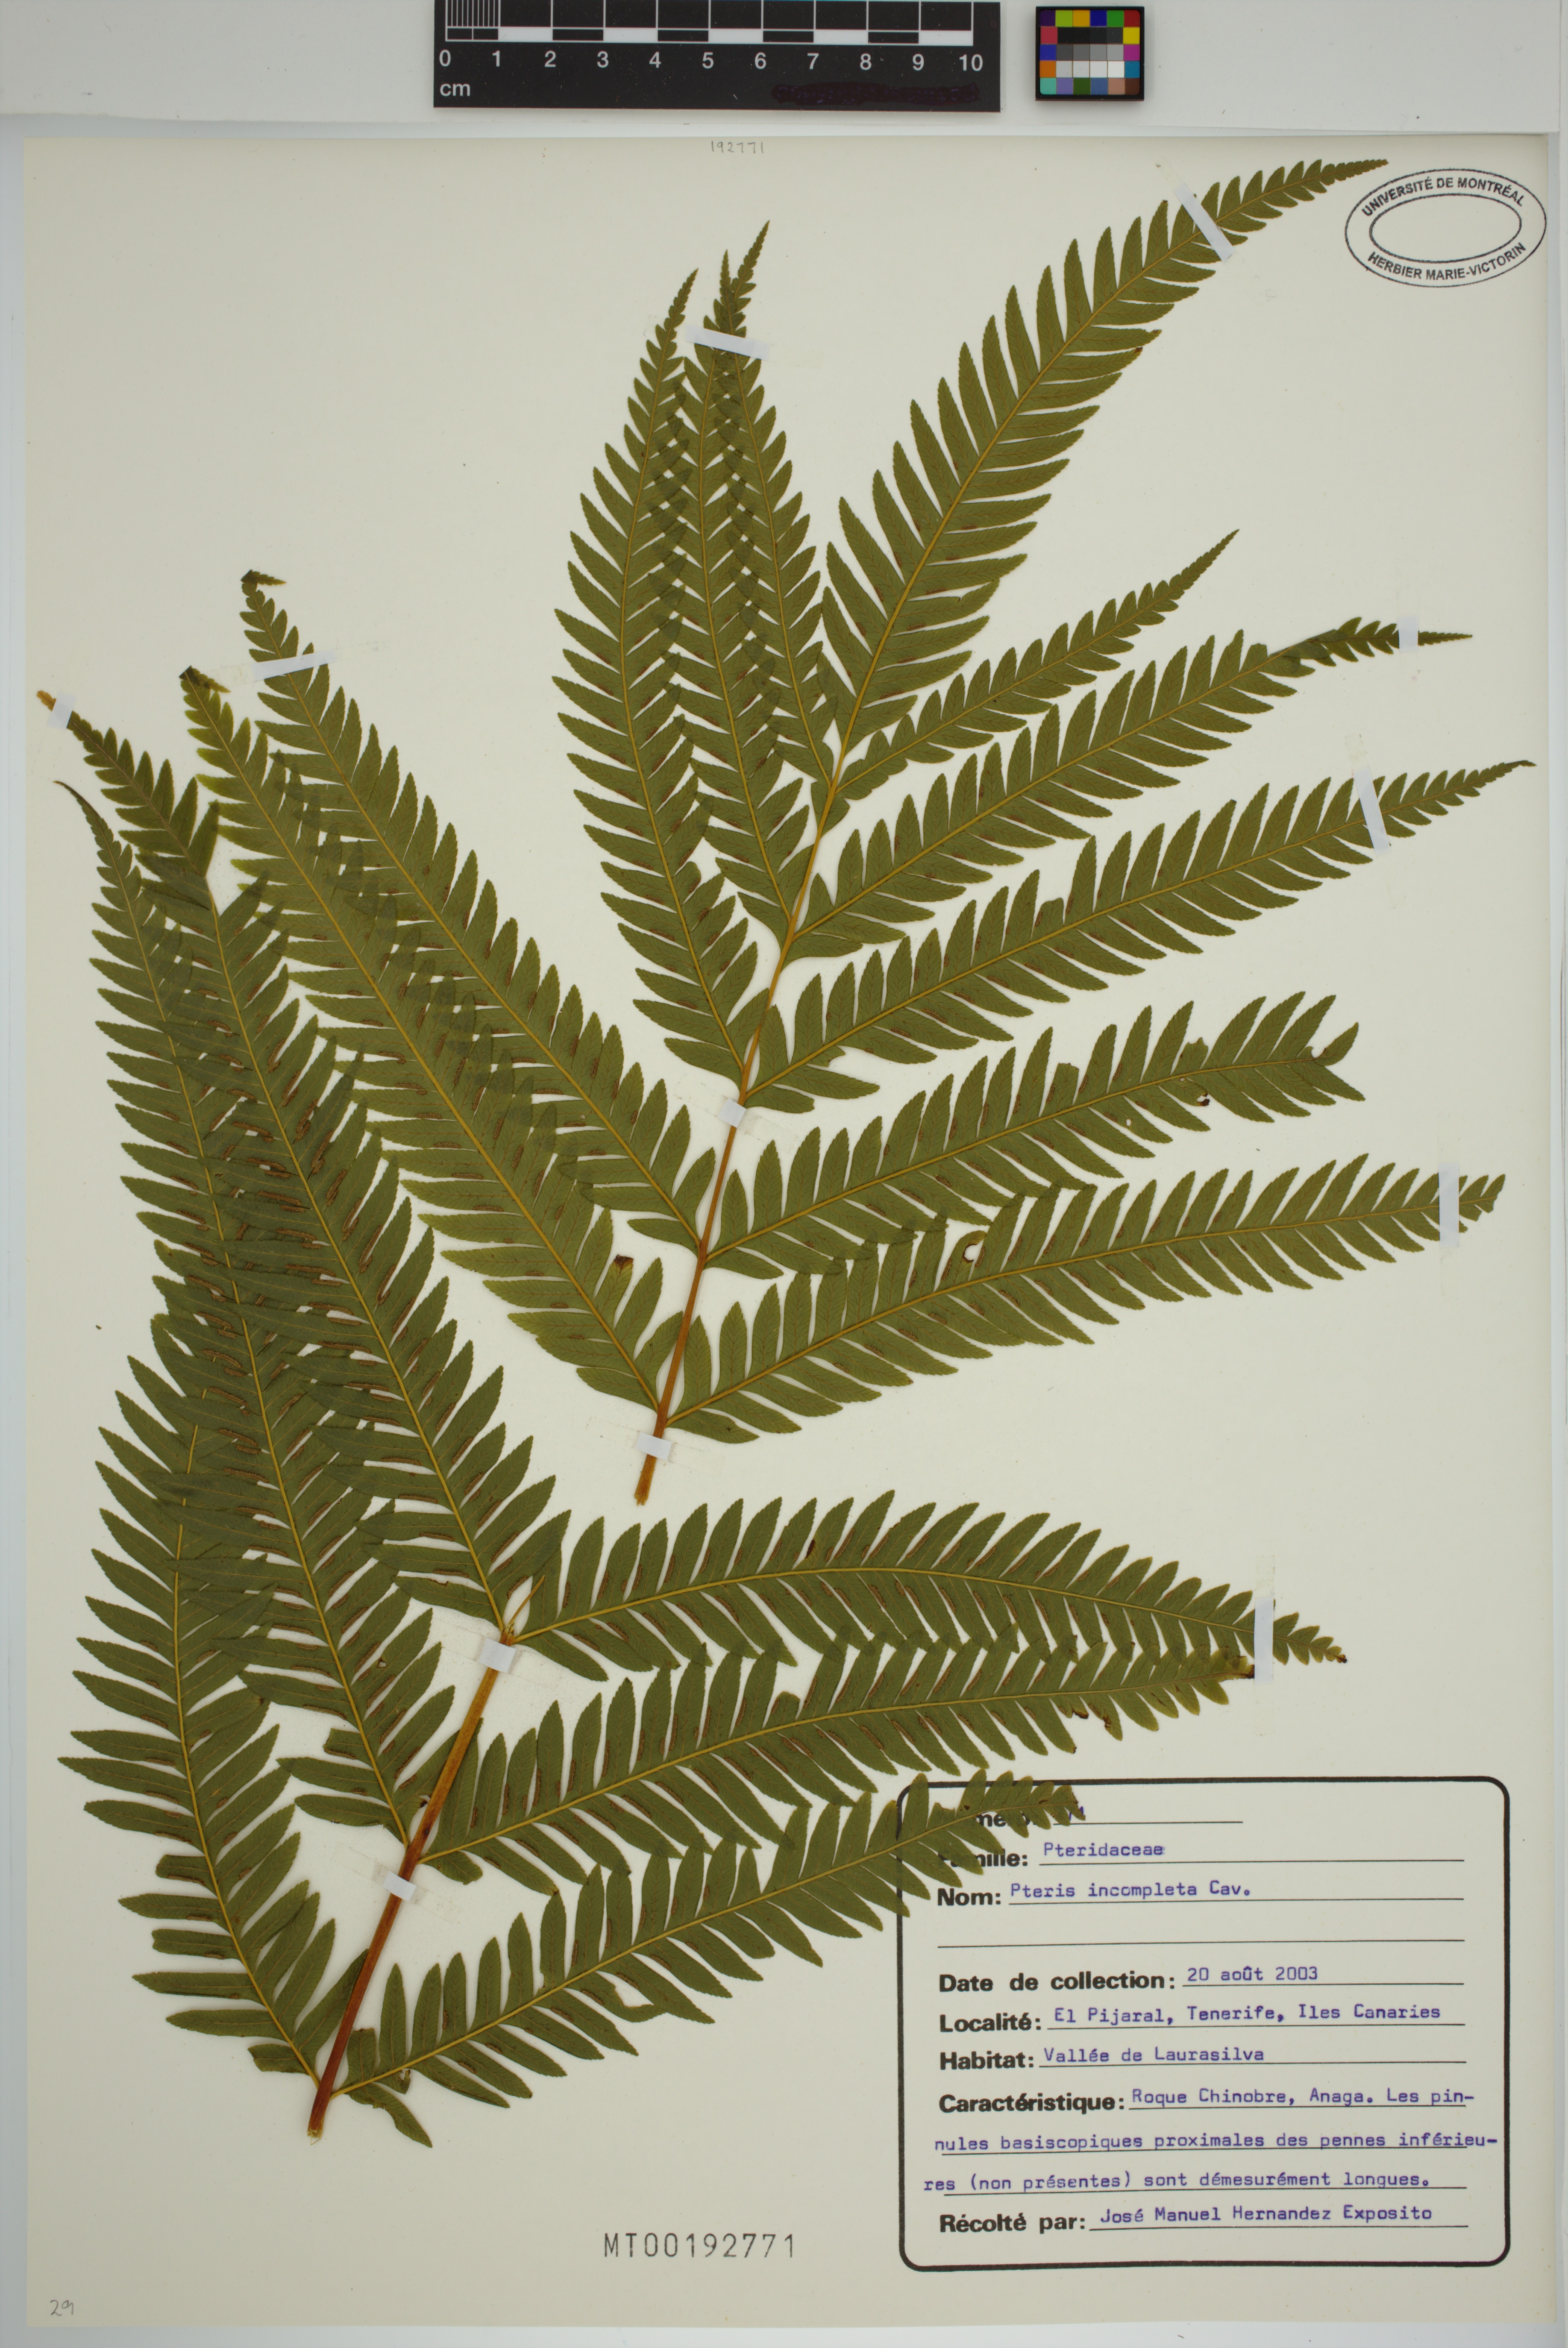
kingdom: Plantae
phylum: Tracheophyta
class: Polypodiopsida
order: Polypodiales
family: Pteridaceae
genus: Pteris
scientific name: Pteris incompleta
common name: Laurisilva brake
